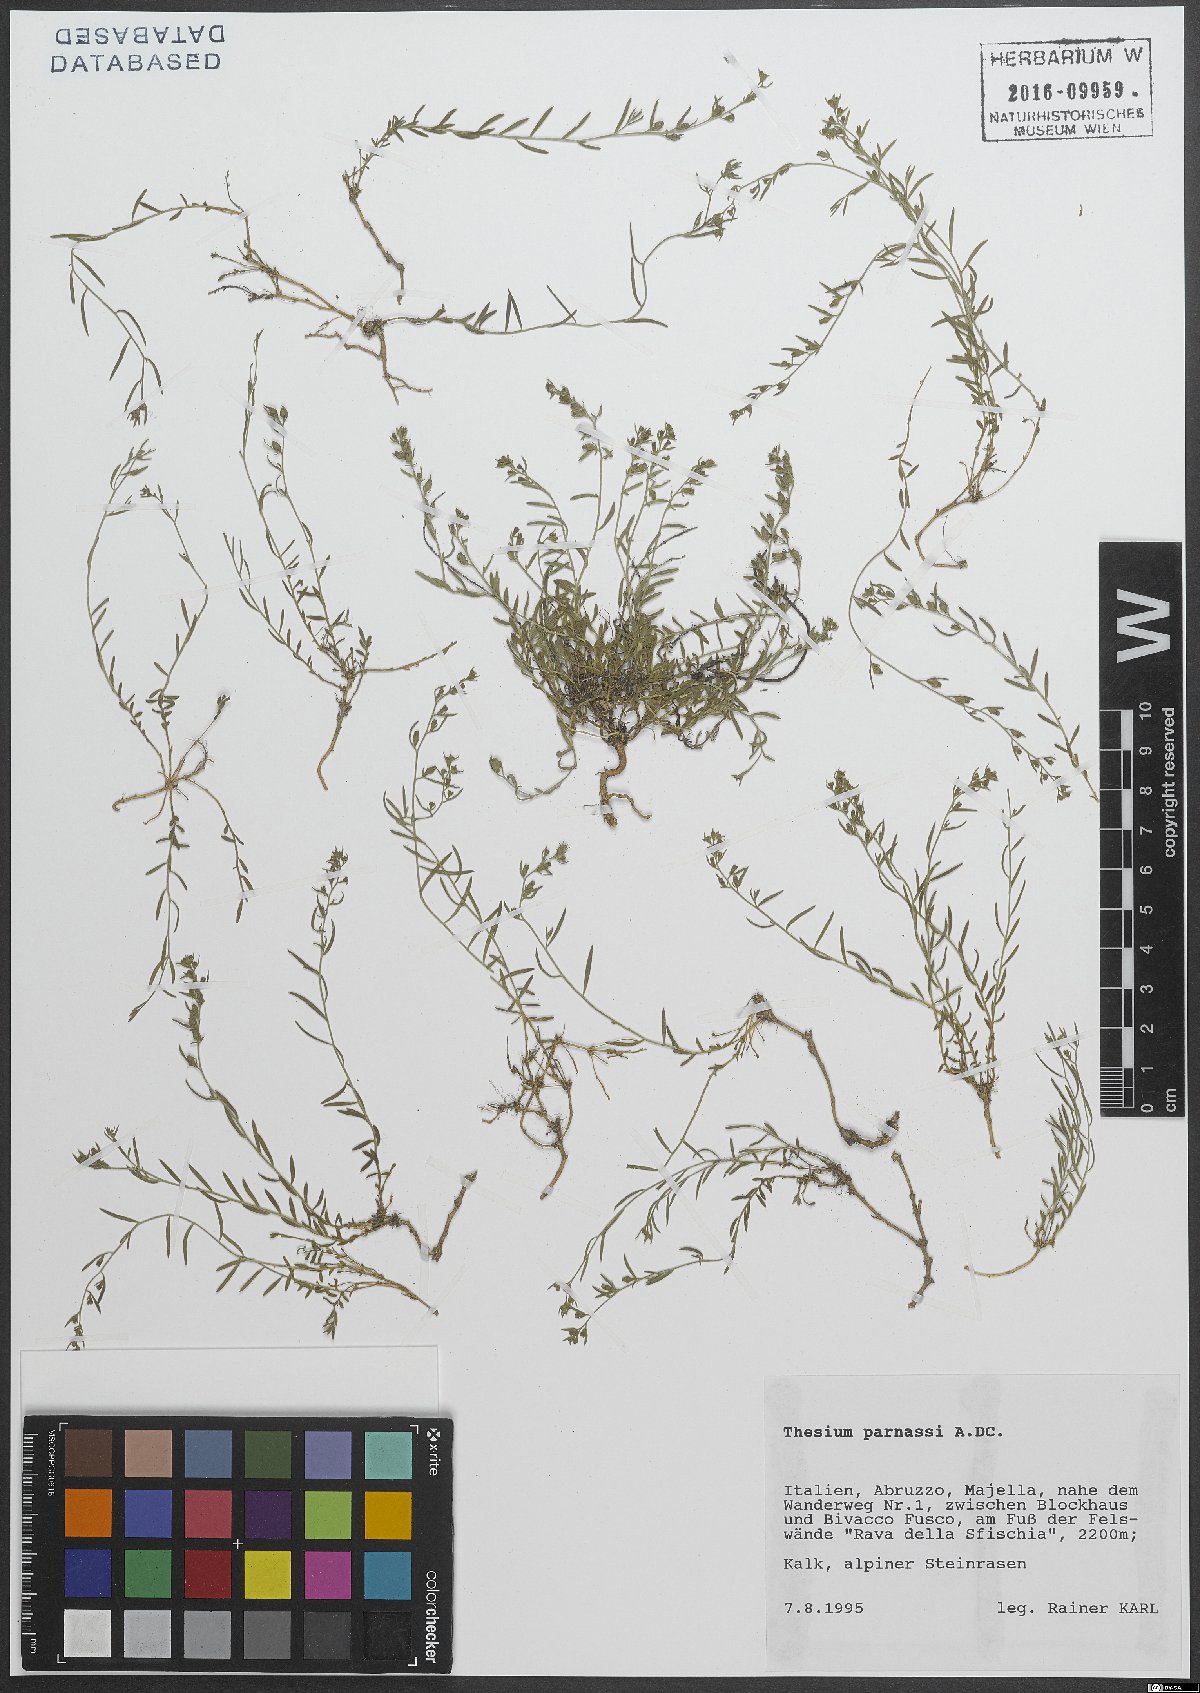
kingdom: Plantae
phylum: Tracheophyta
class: Magnoliopsida
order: Santalales
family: Thesiaceae
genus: Thesium
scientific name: Thesium parnassi
